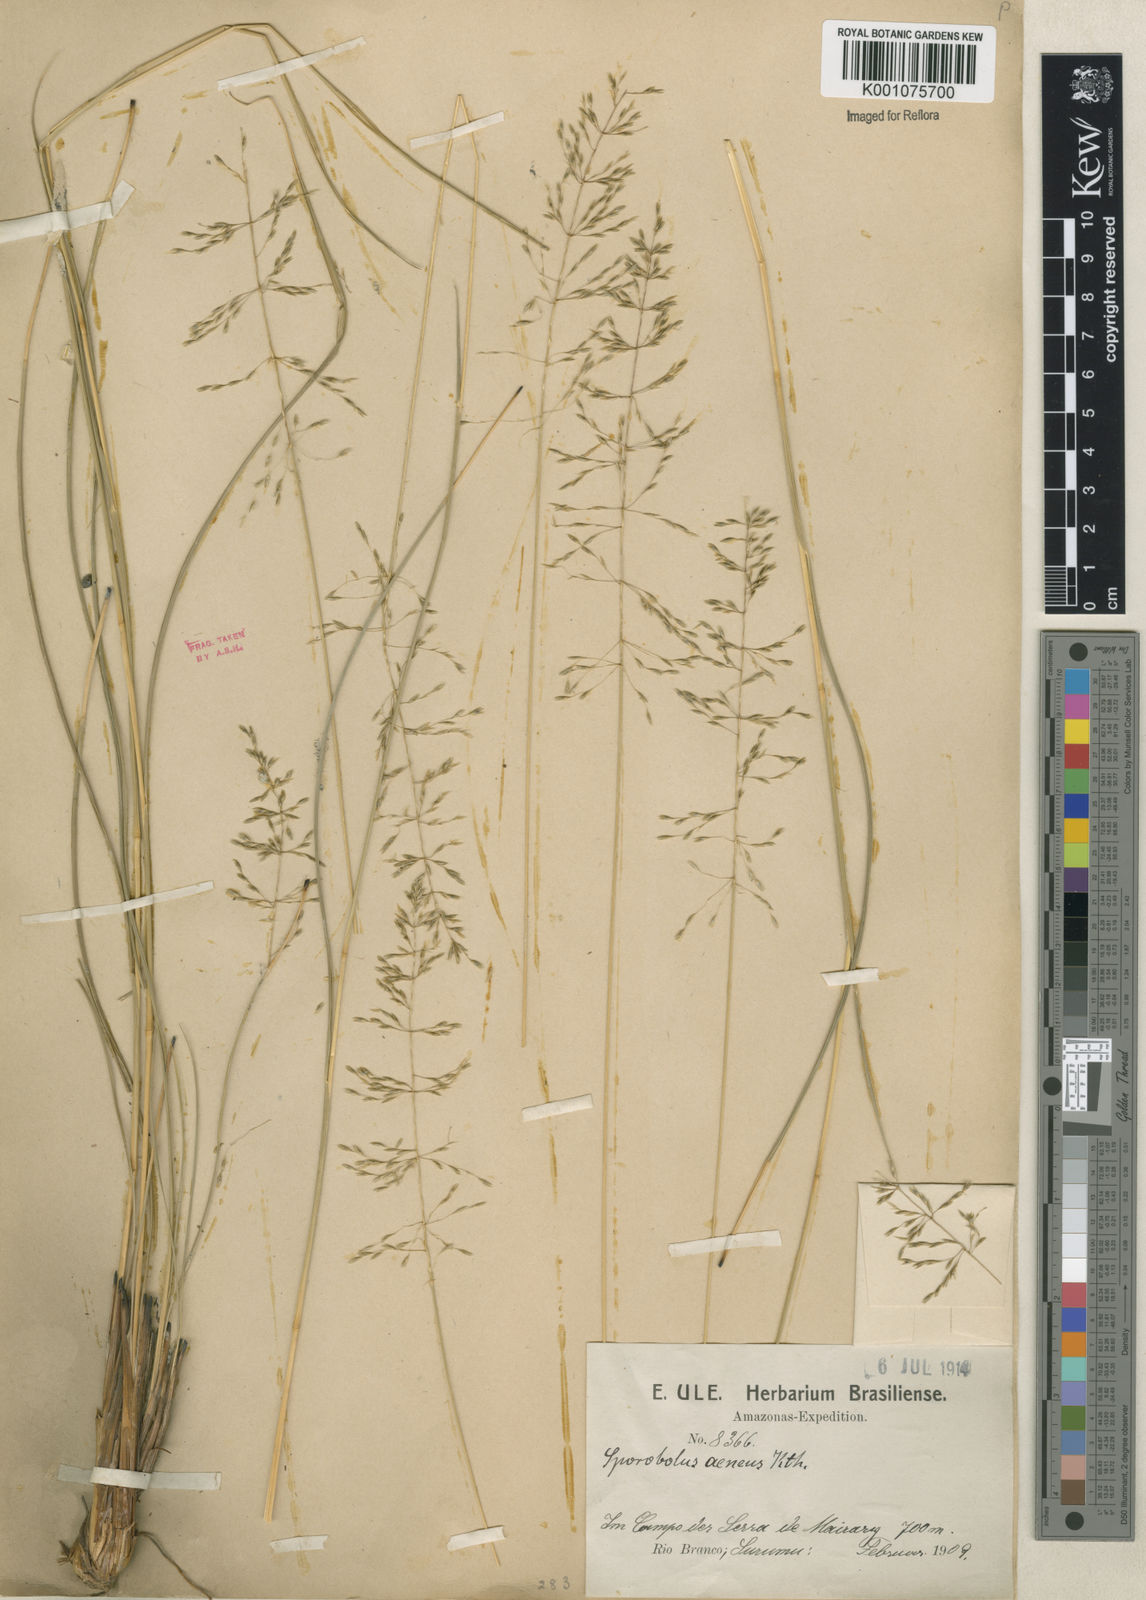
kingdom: Plantae
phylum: Tracheophyta
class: Liliopsida
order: Poales
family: Poaceae
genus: Sporobolus
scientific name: Sporobolus cubensis
